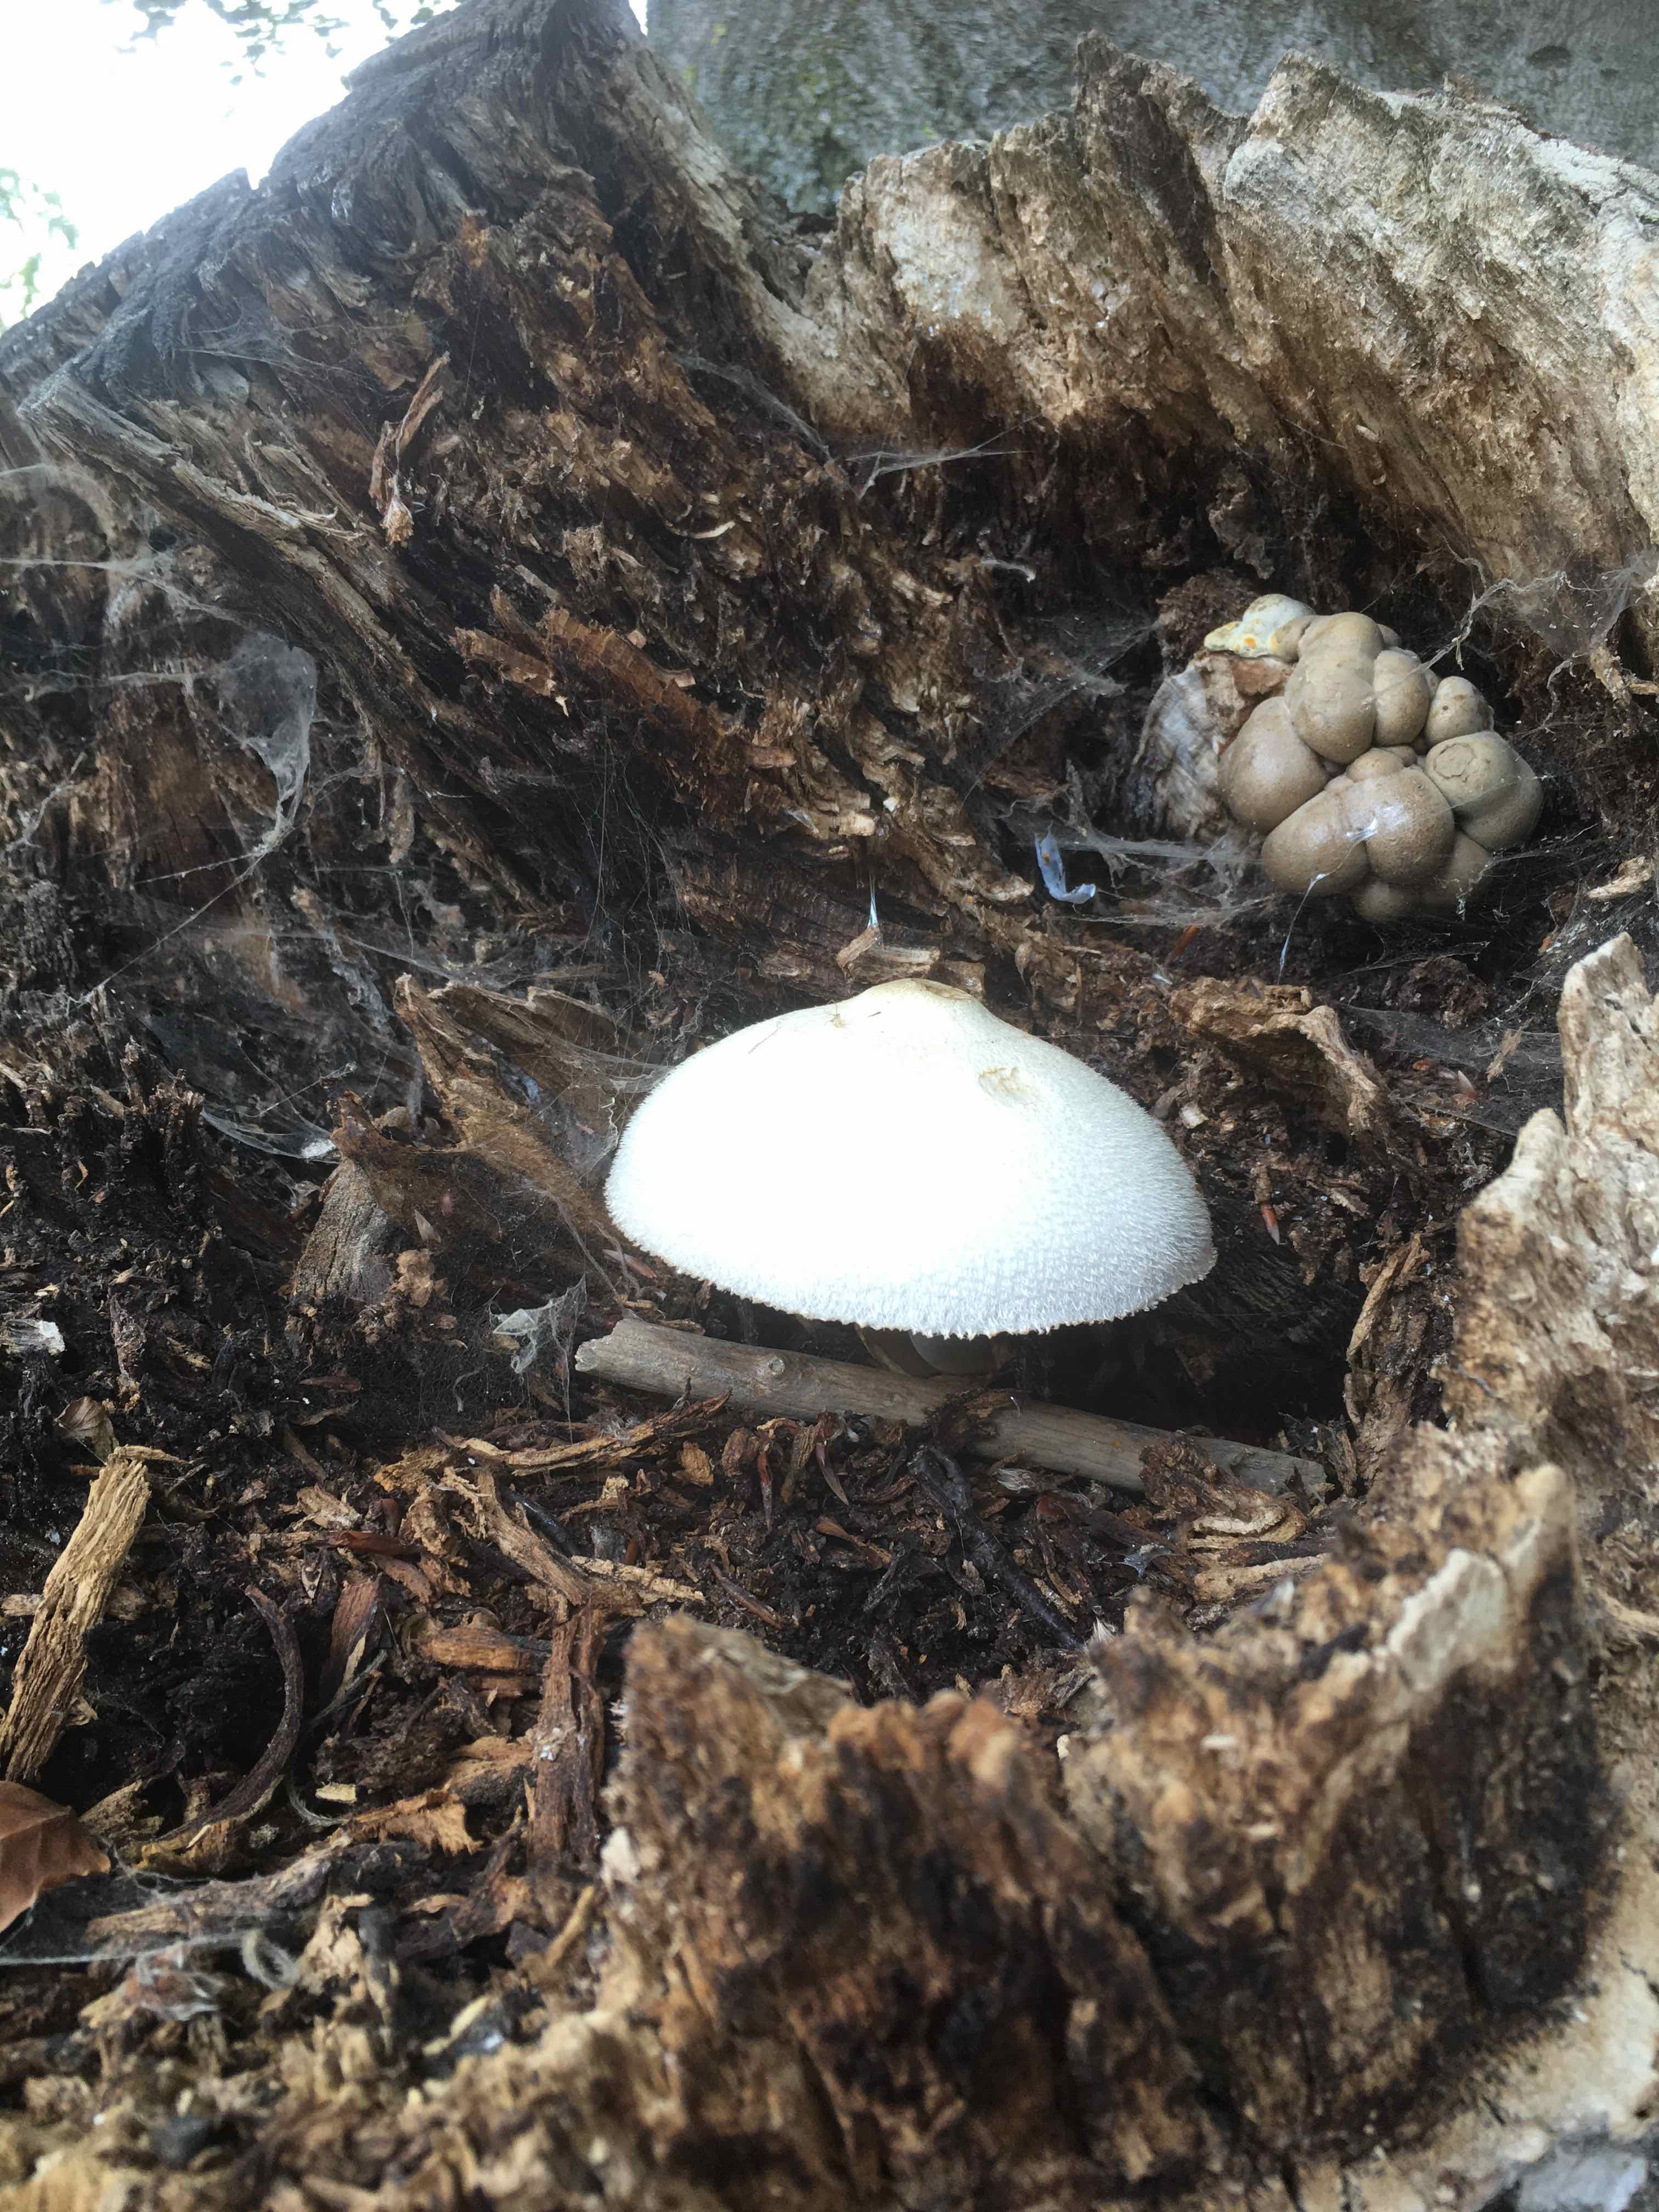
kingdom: Fungi
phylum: Basidiomycota
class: Agaricomycetes
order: Agaricales
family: Pluteaceae
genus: Volvariella
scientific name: Volvariella bombycina
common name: silkehåret posesvamp
